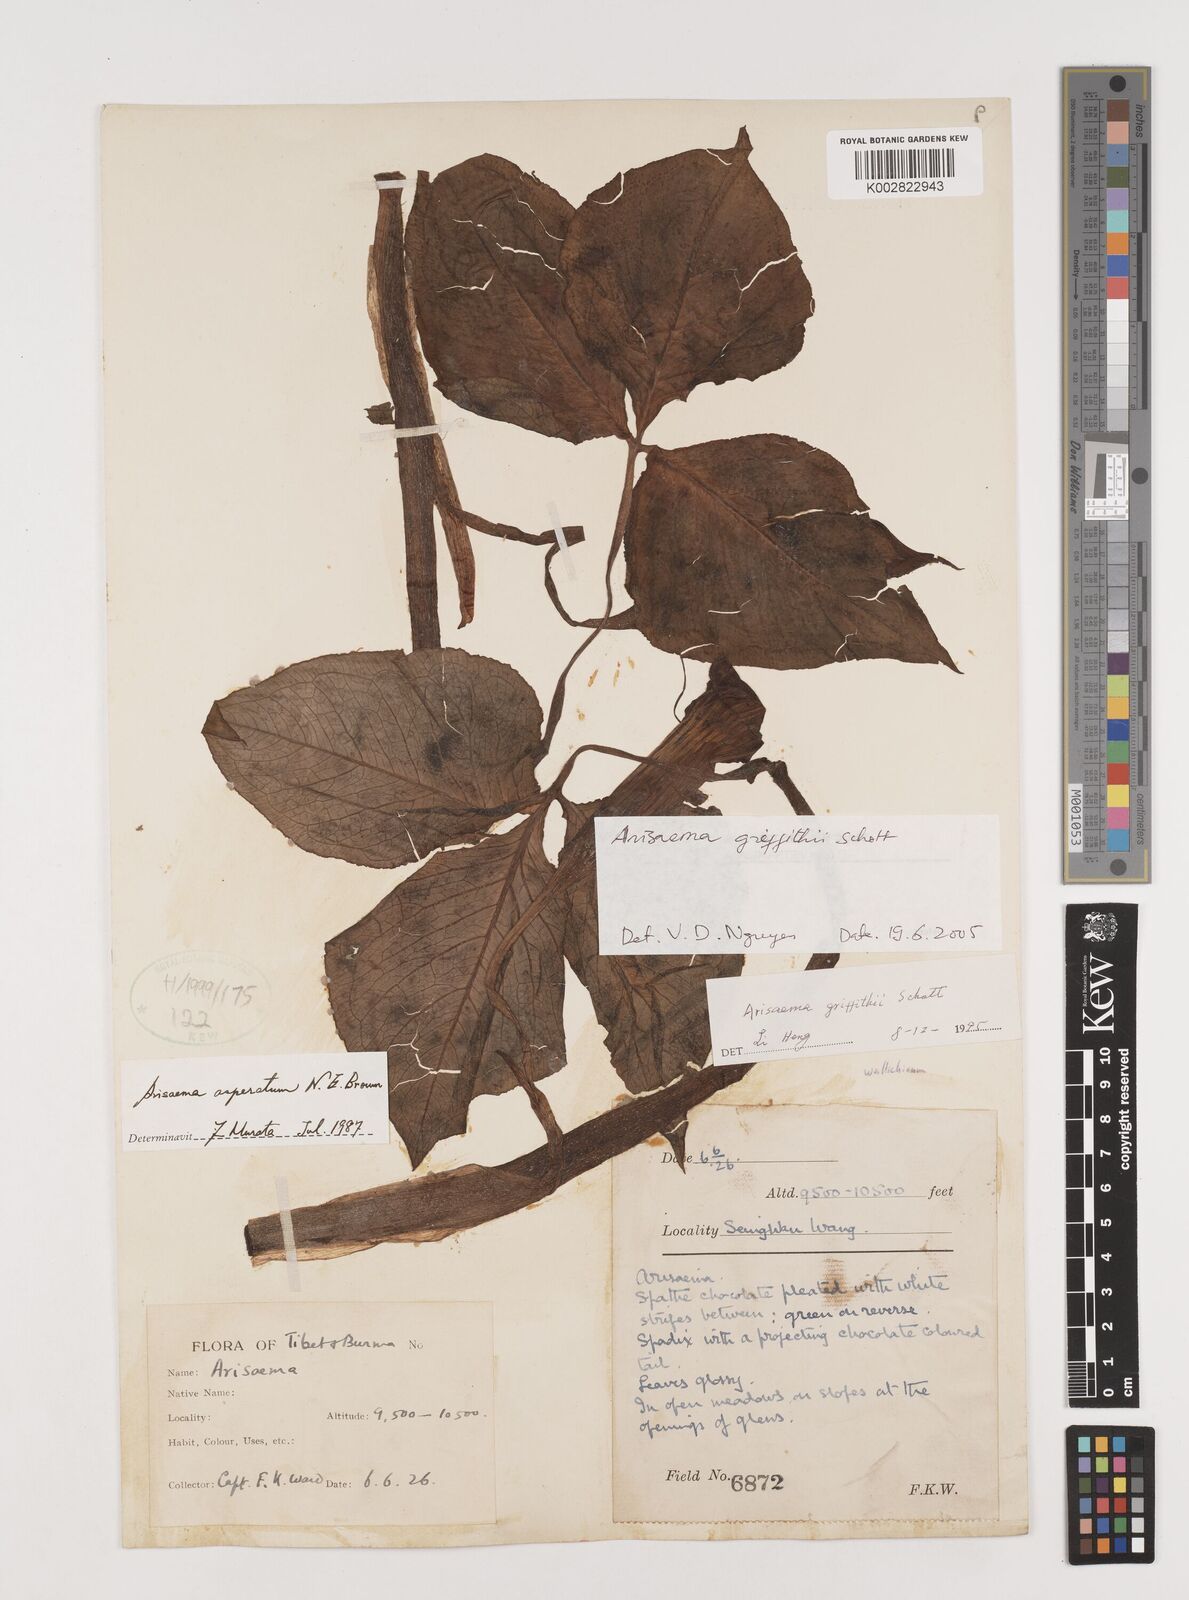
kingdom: Plantae
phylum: Tracheophyta
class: Liliopsida
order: Alismatales
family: Araceae
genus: Arisaema
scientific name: Arisaema griffithii
